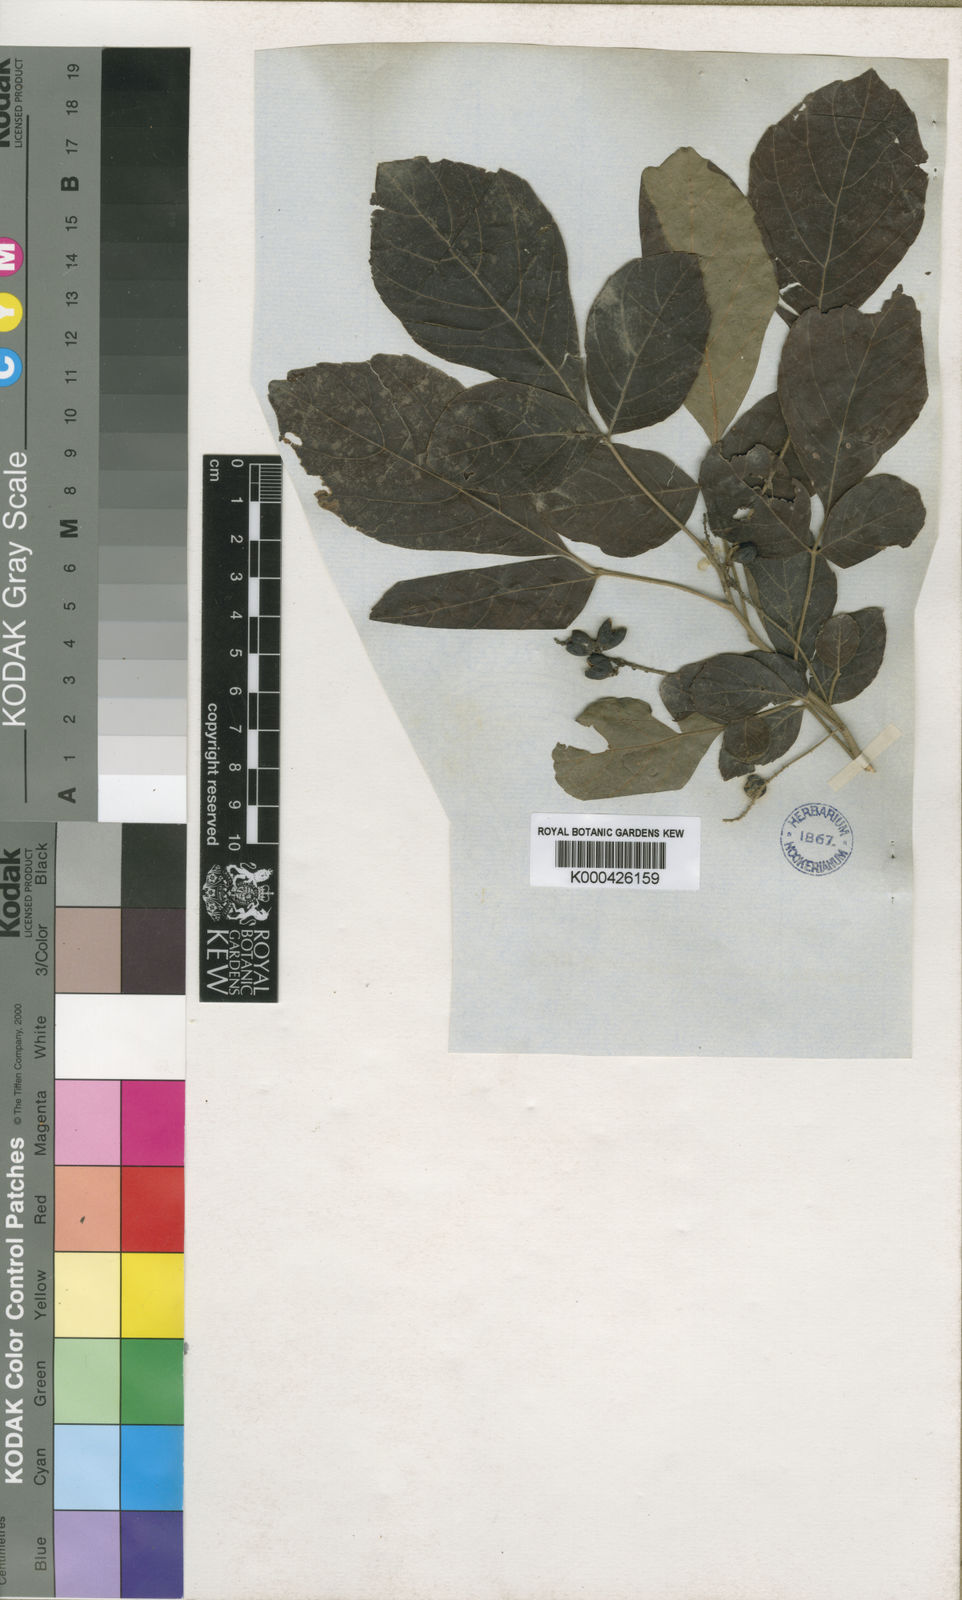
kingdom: Plantae
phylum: Tracheophyta
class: Magnoliopsida
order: Sapindales
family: Sapindaceae
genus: Allophylus
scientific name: Allophylus rubifolius
